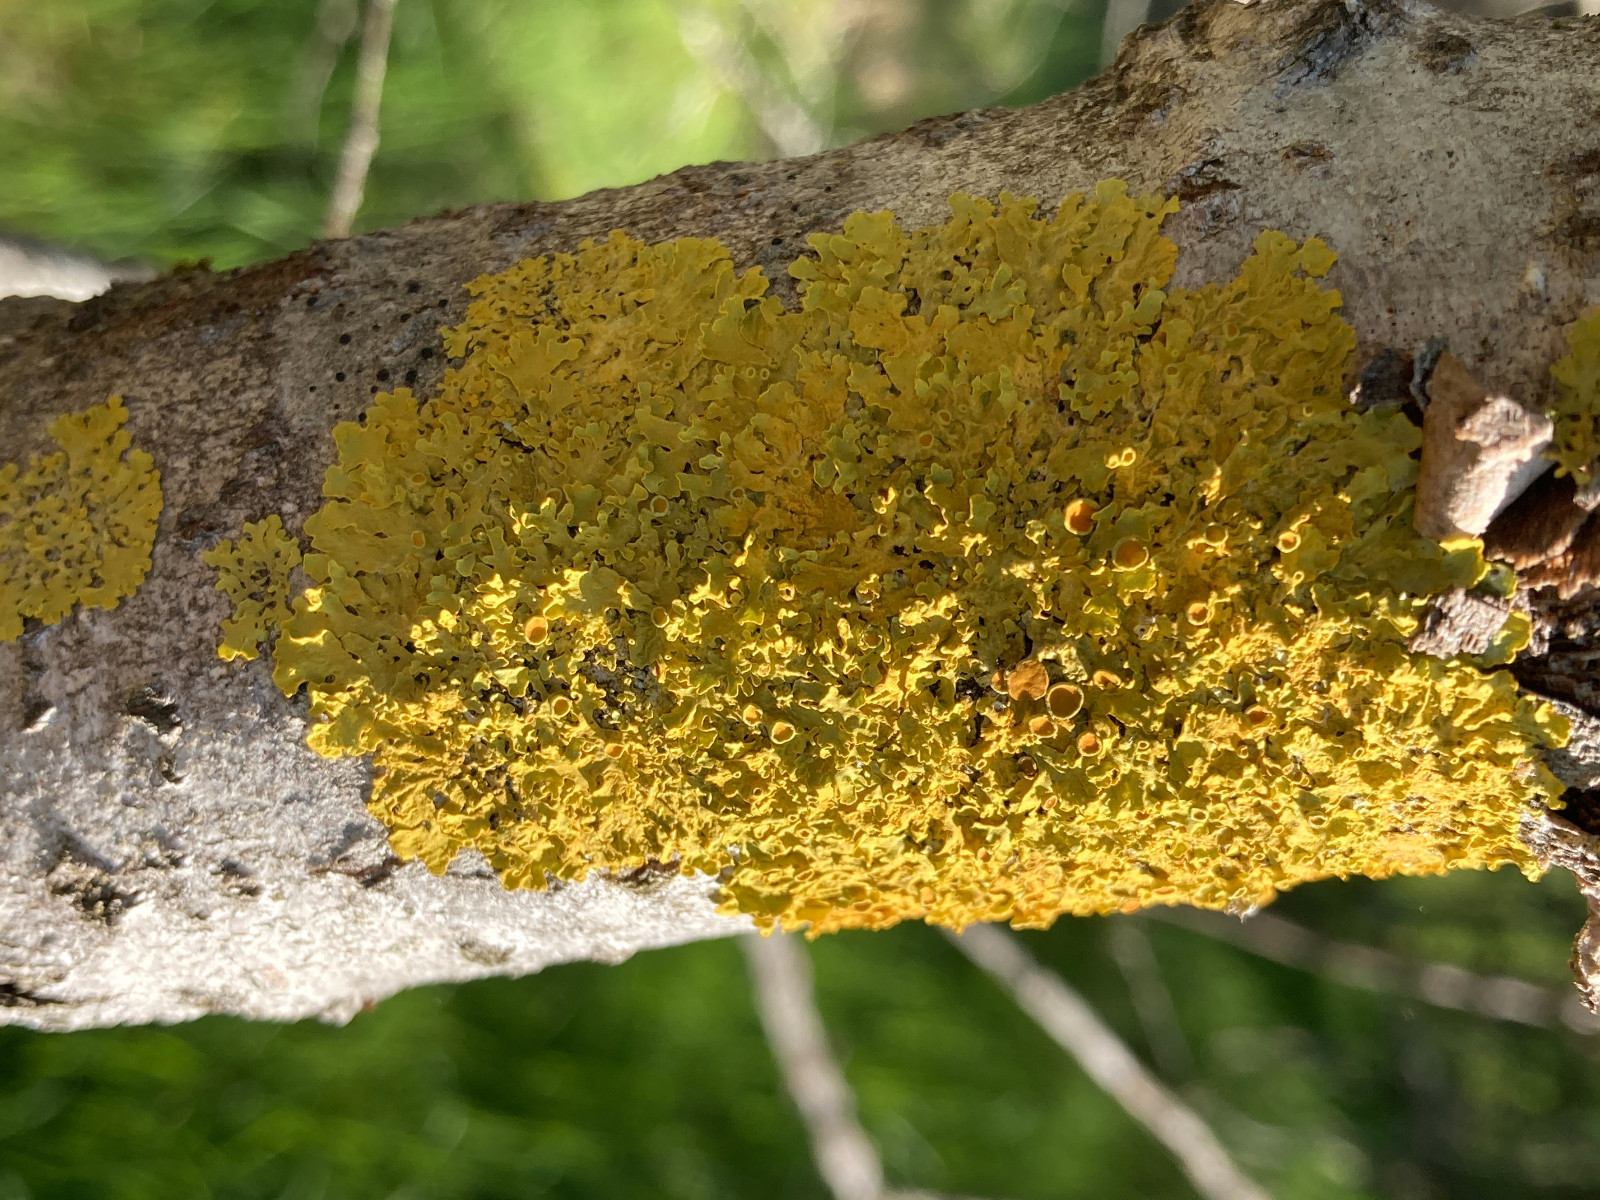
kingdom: Fungi
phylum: Ascomycota
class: Lecanoromycetes
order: Teloschistales
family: Teloschistaceae
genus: Xanthoria
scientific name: Xanthoria parietina
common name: almindelig væggelav
